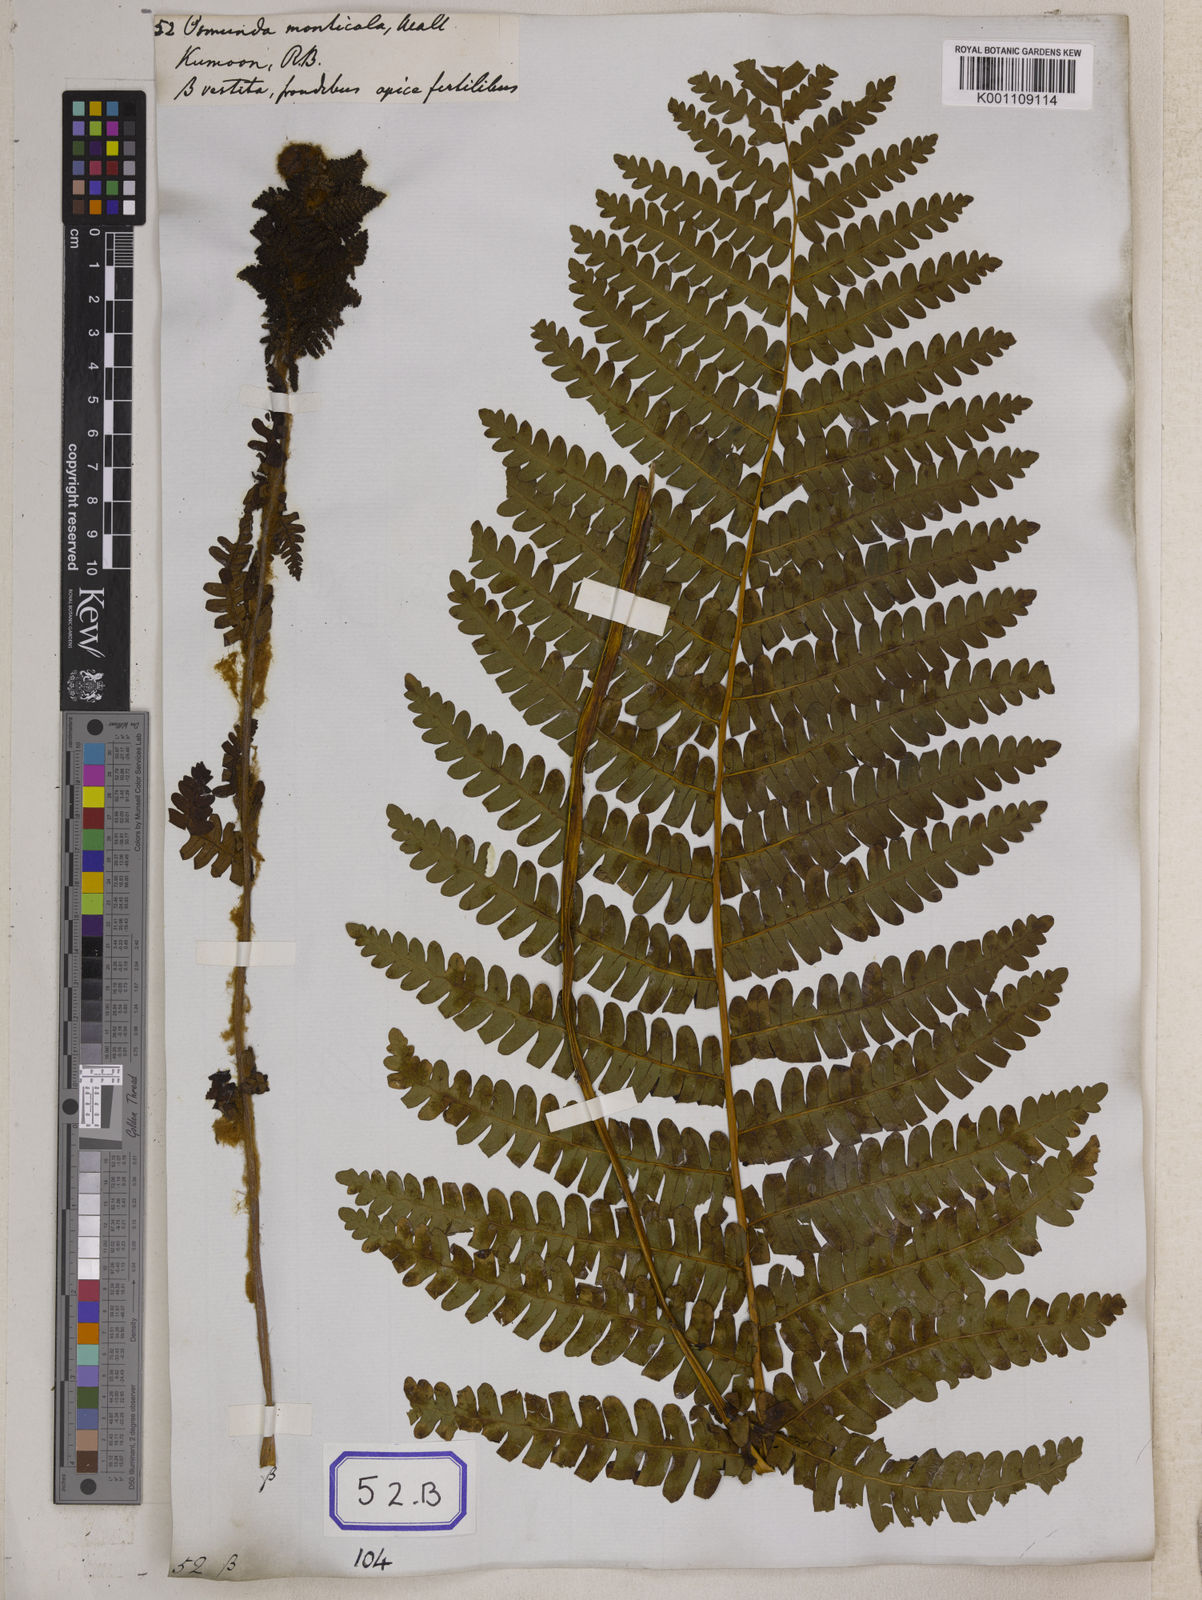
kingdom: Plantae
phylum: Tracheophyta
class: Polypodiopsida
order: Osmundales
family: Osmundaceae
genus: Osmunda
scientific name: Osmunda
